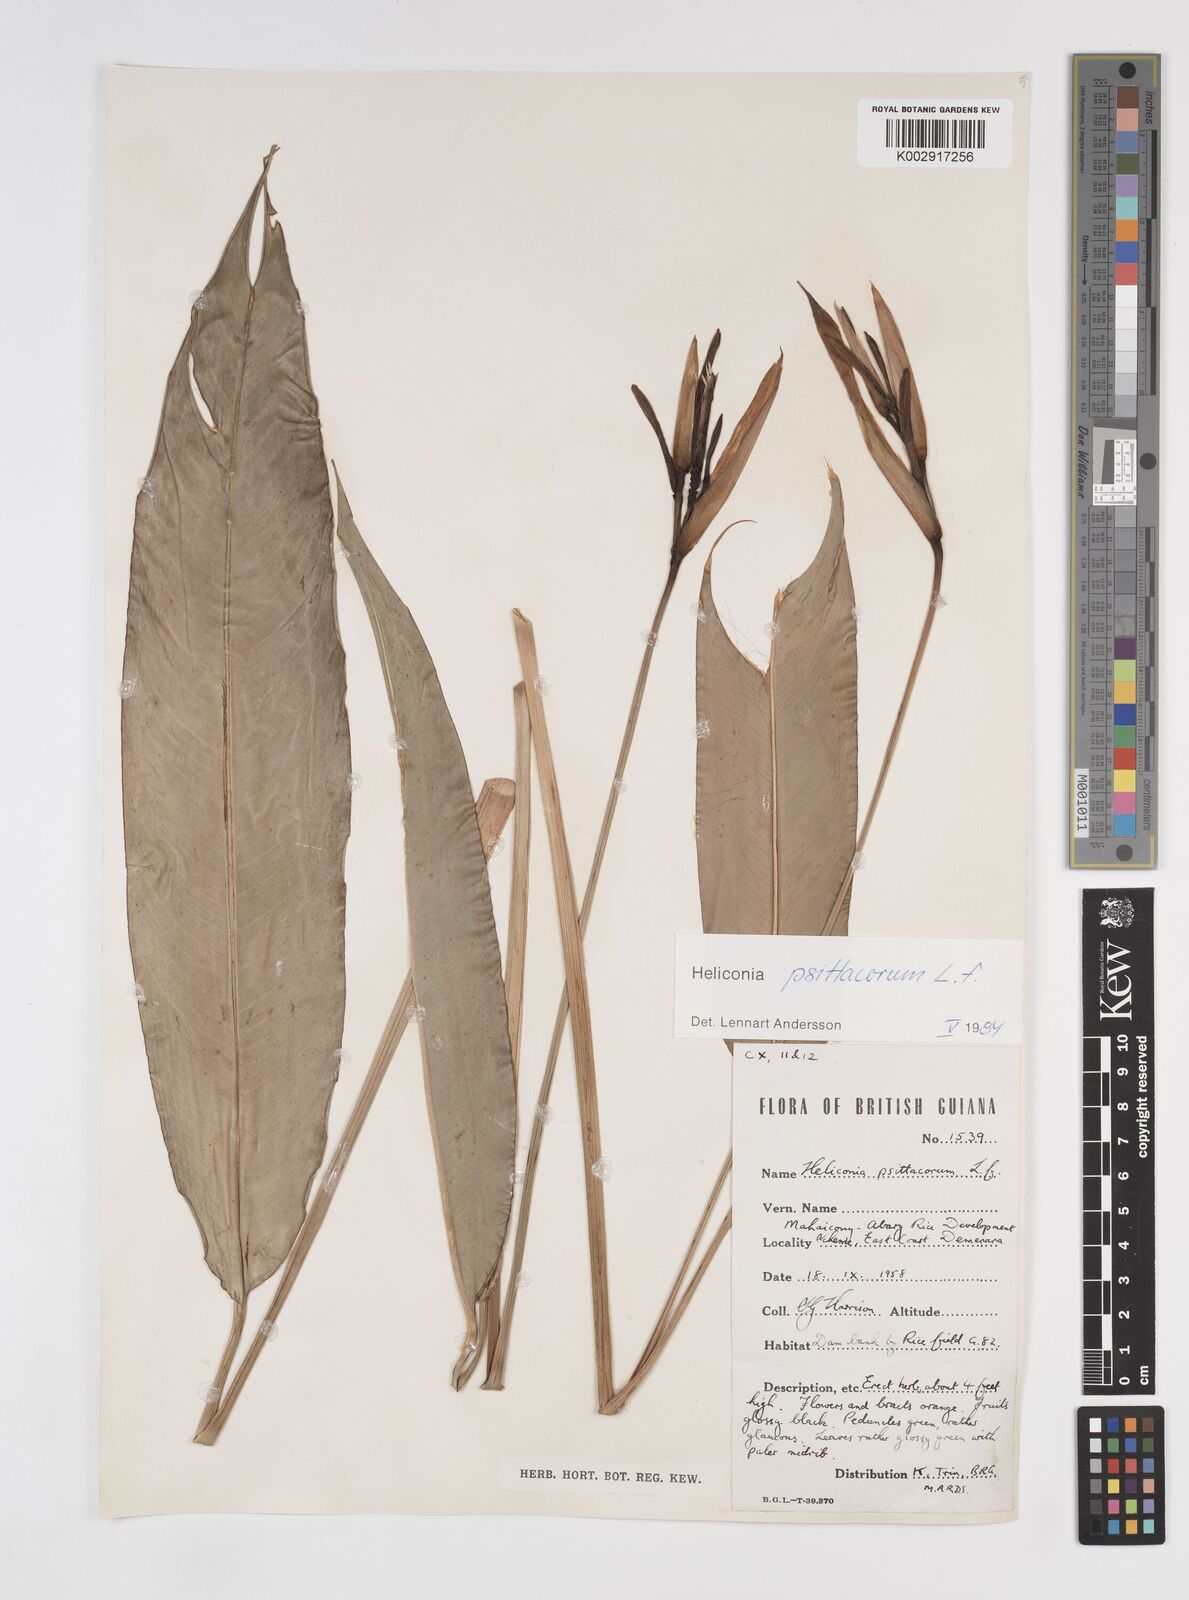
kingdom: Plantae
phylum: Tracheophyta
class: Liliopsida
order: Zingiberales
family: Heliconiaceae
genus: Heliconia
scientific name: Heliconia psittacorum
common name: Parrot's-flower
